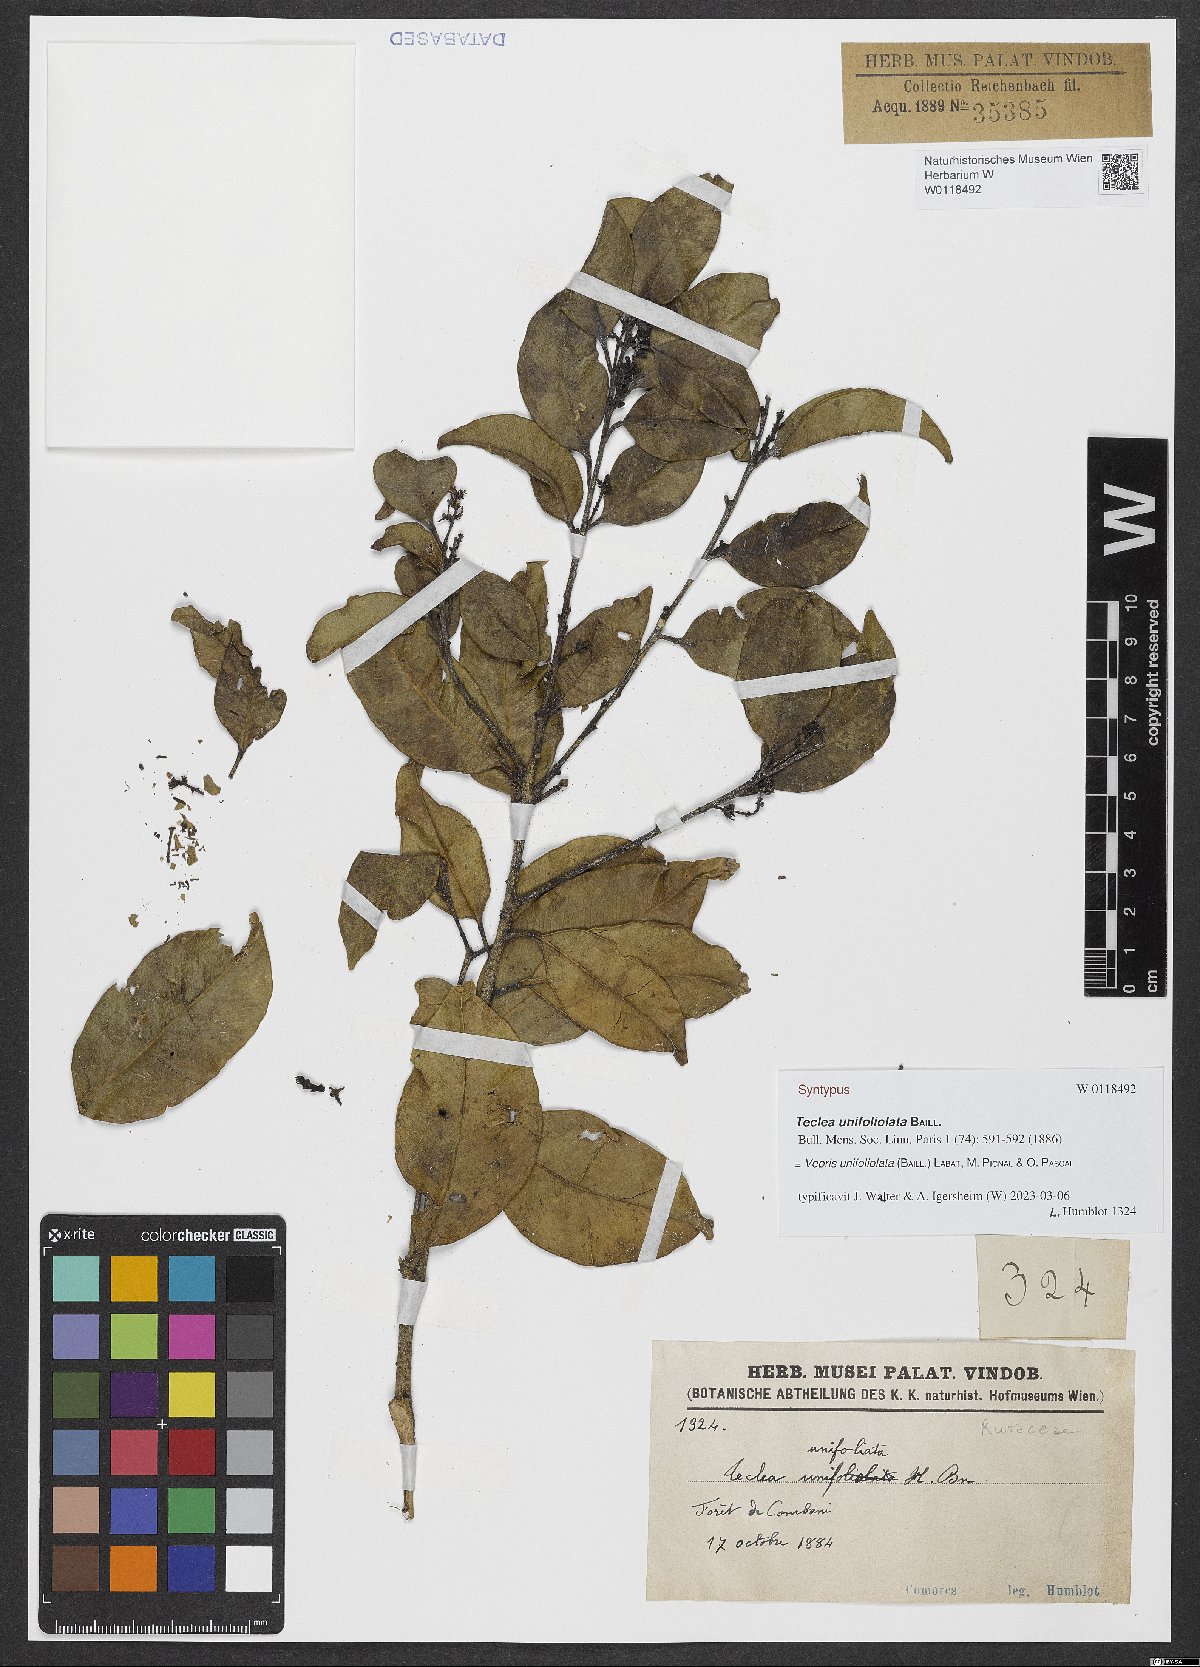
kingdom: Plantae
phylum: Tracheophyta
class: Magnoliopsida
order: Sapindales
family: Rutaceae
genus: Vepris
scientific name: Vepris unifoliolata
